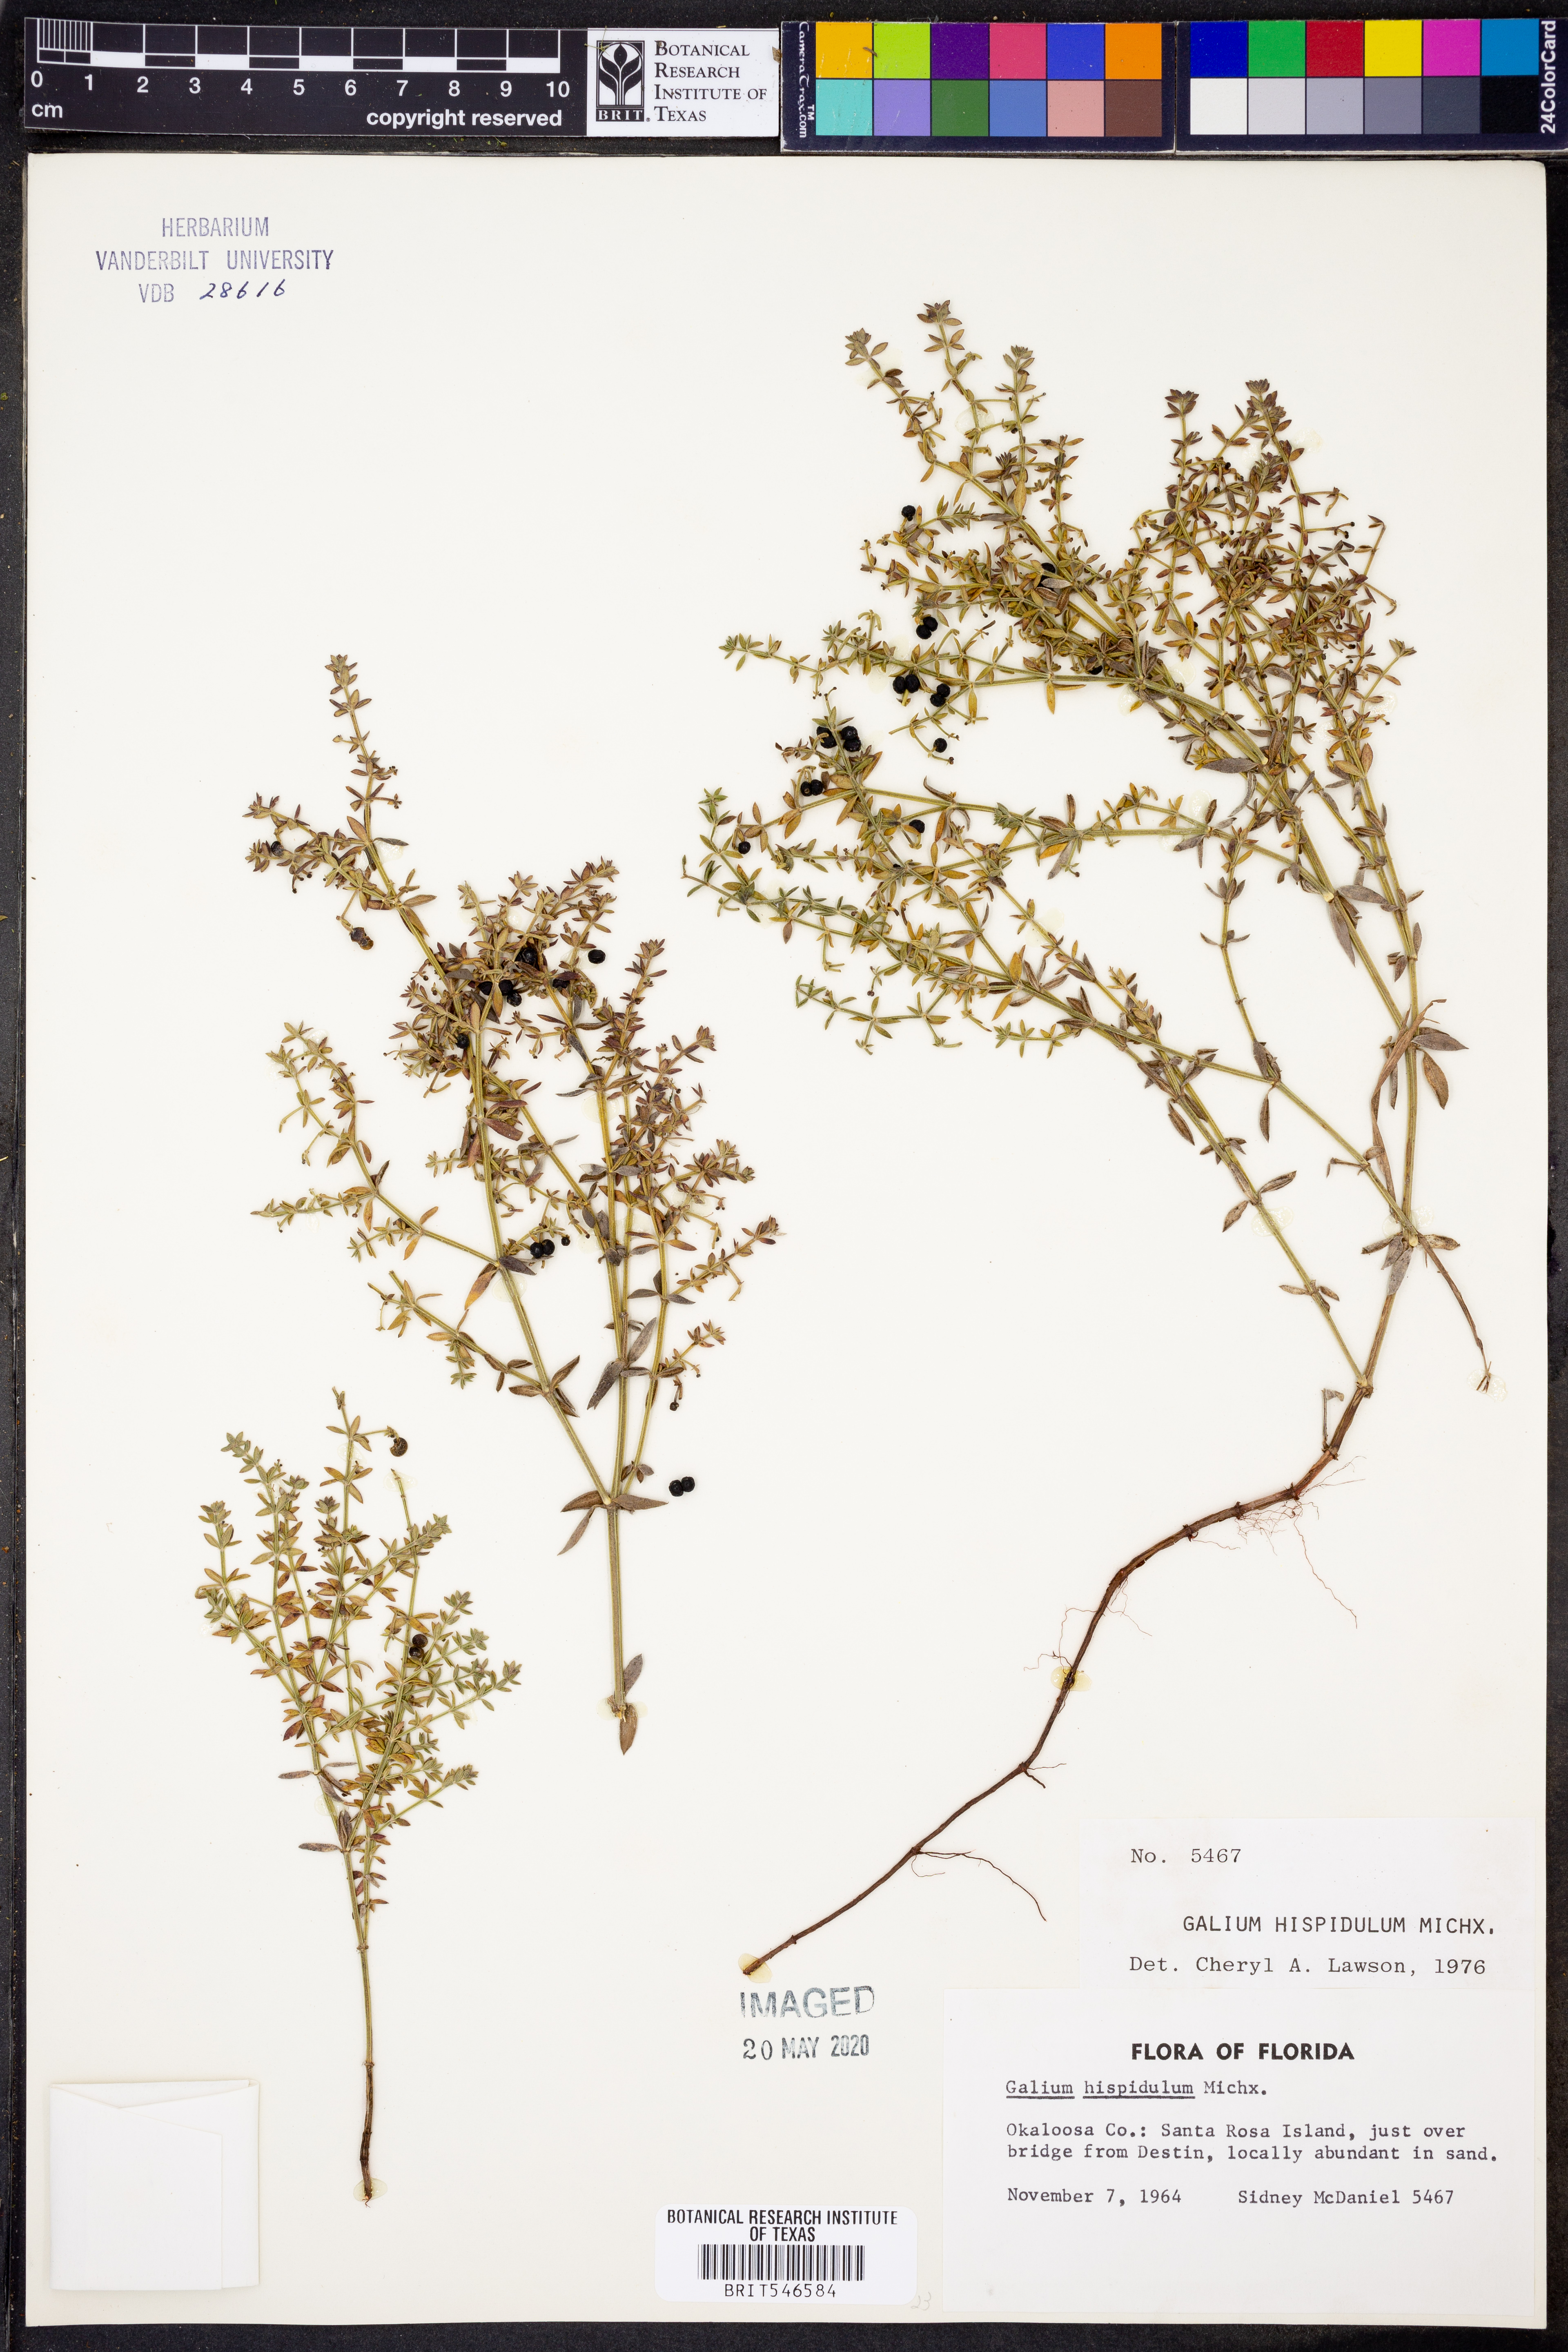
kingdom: Plantae
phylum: Tracheophyta
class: Magnoliopsida
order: Gentianales
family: Rubiaceae
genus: Galium
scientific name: Galium bermudense
